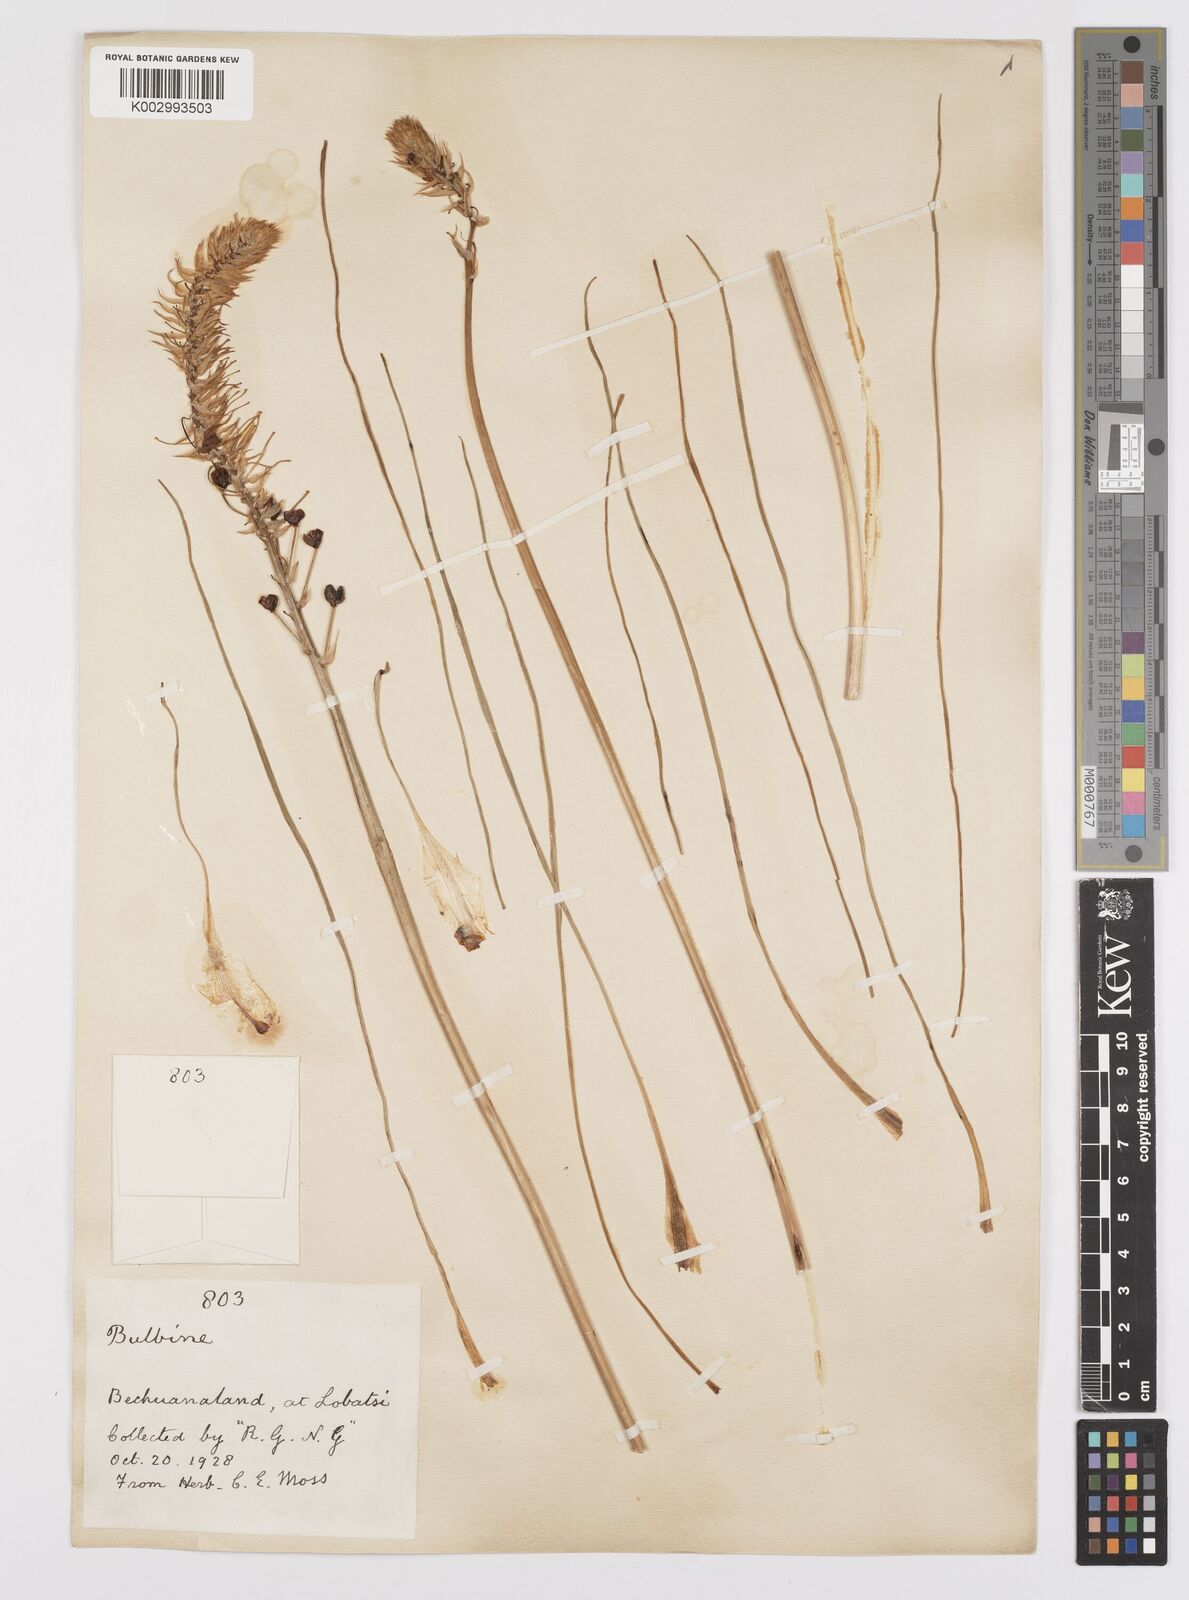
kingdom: Plantae
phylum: Tracheophyta
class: Liliopsida
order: Asparagales
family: Asphodelaceae
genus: Bulbine
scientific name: Bulbine abyssinica
